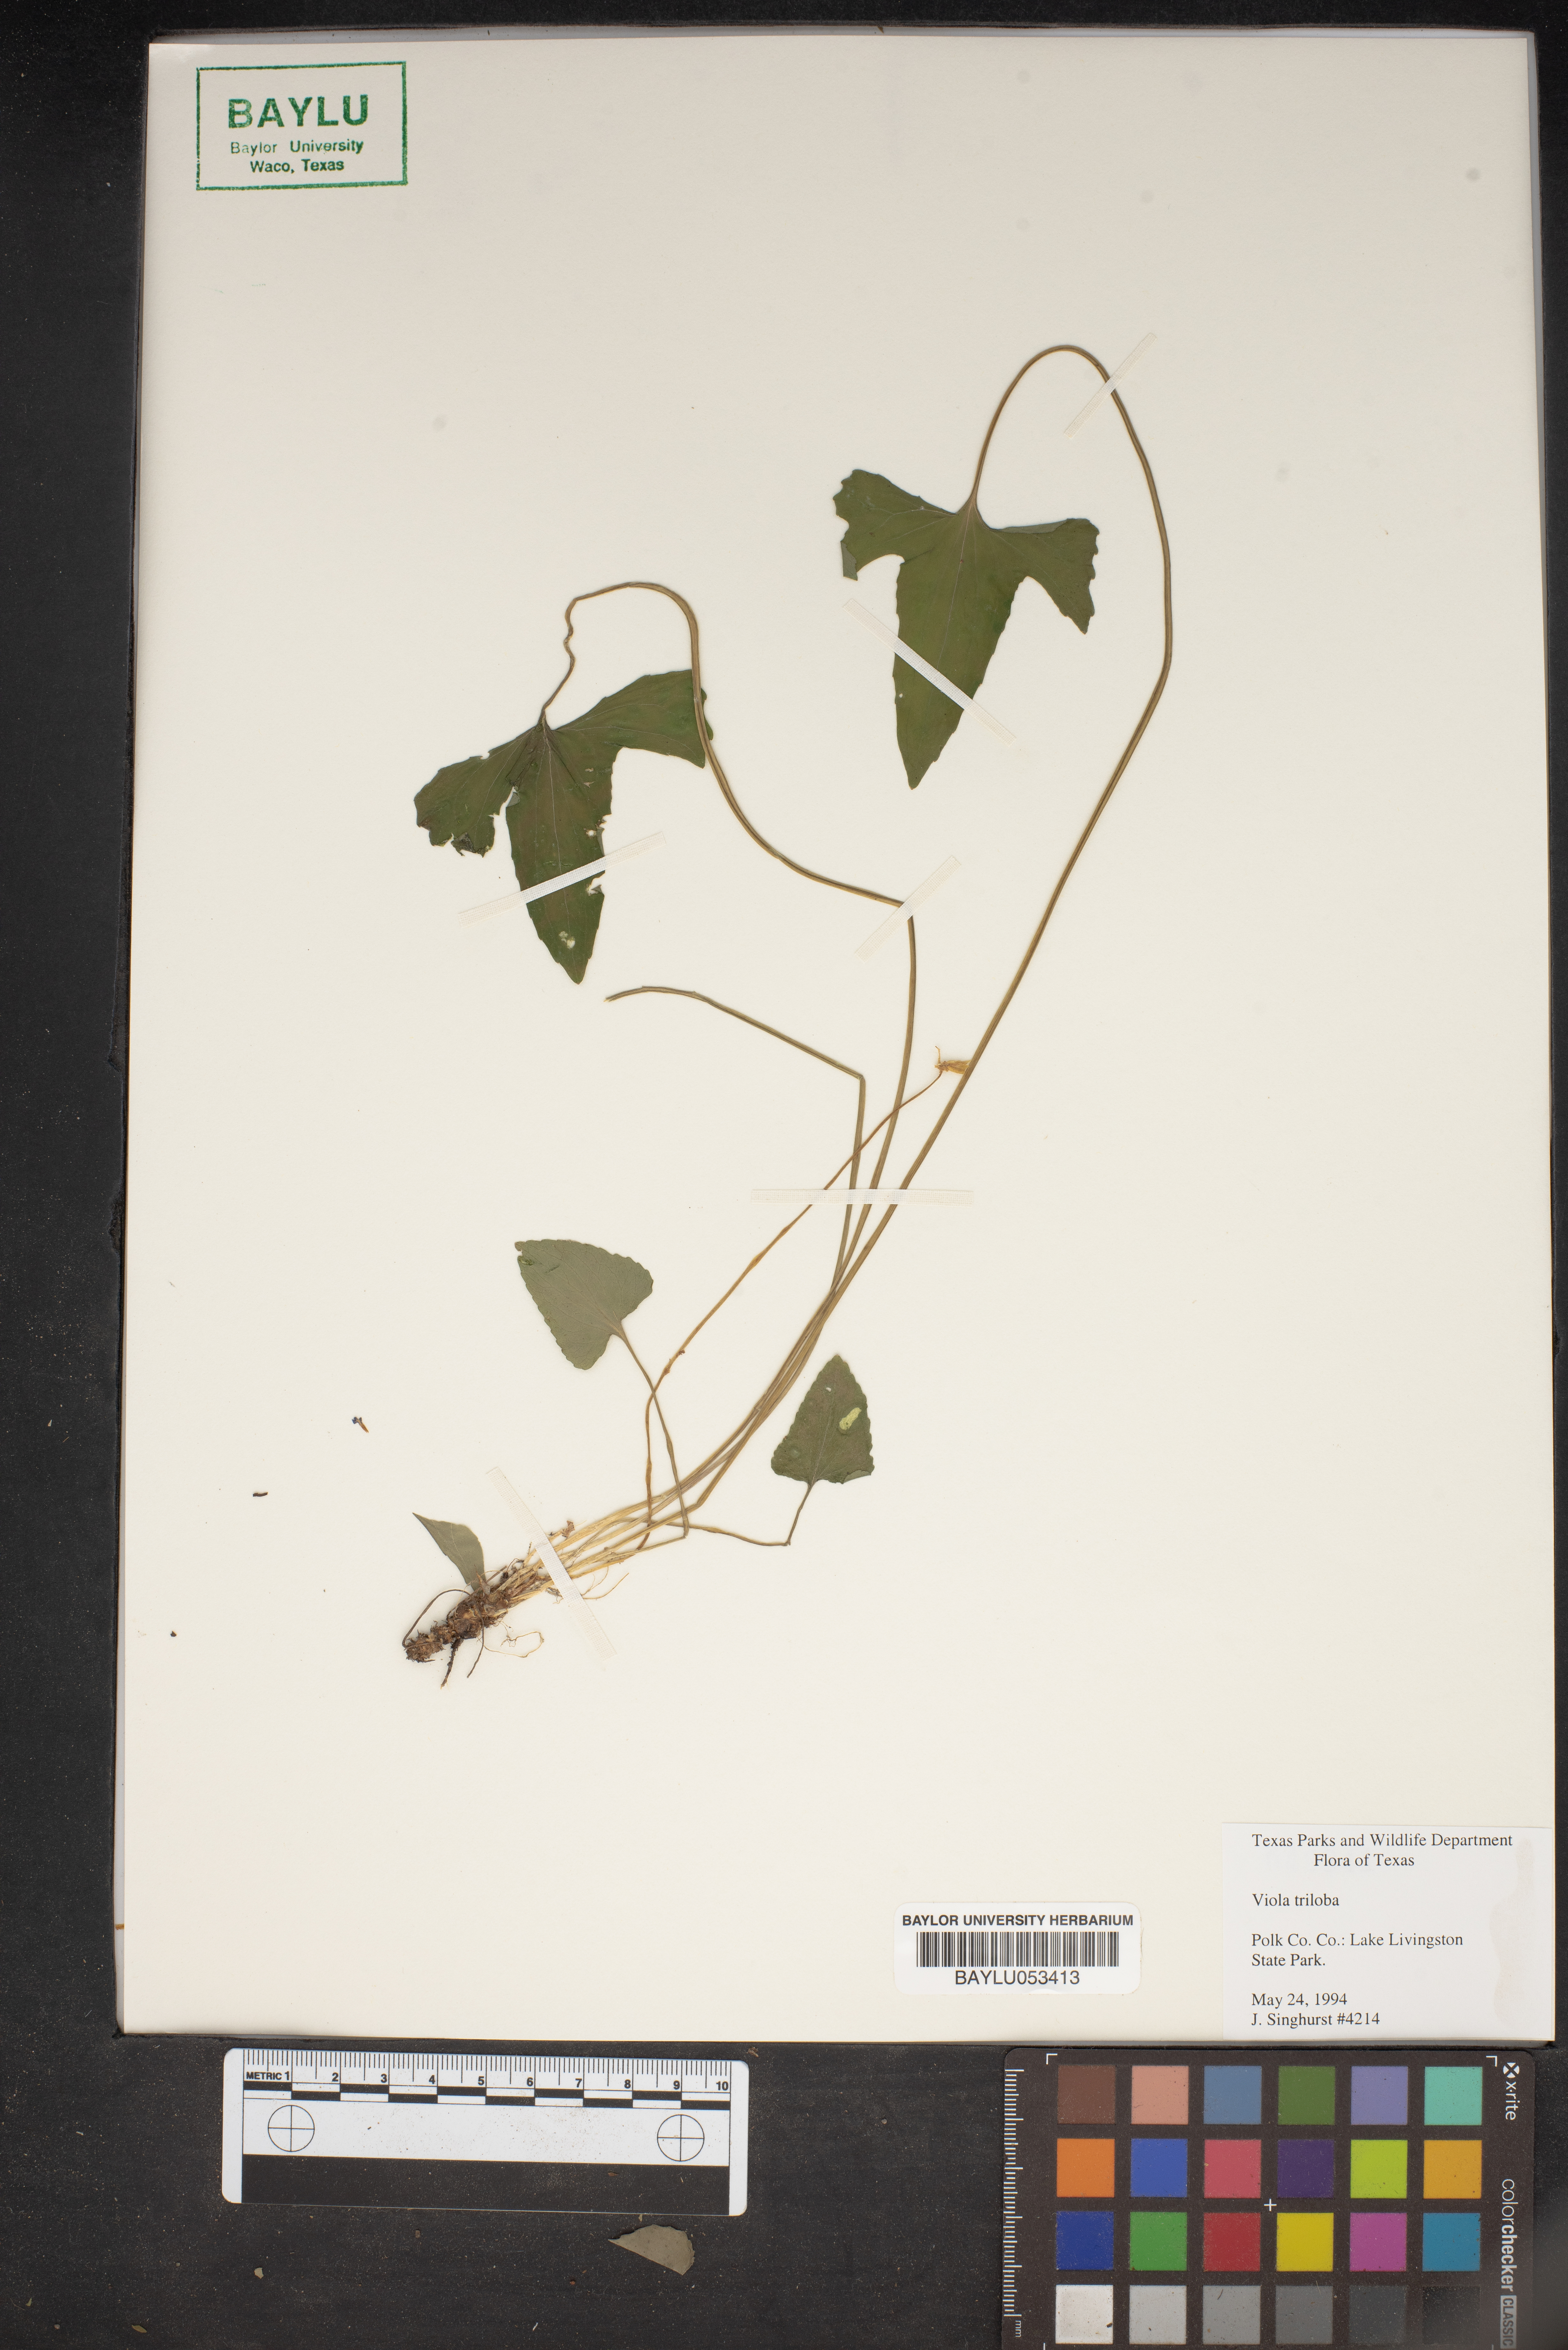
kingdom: Plantae
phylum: Tracheophyta
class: Magnoliopsida
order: Malpighiales
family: Violaceae
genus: Viola
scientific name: Viola palmata
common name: Early blue violet
